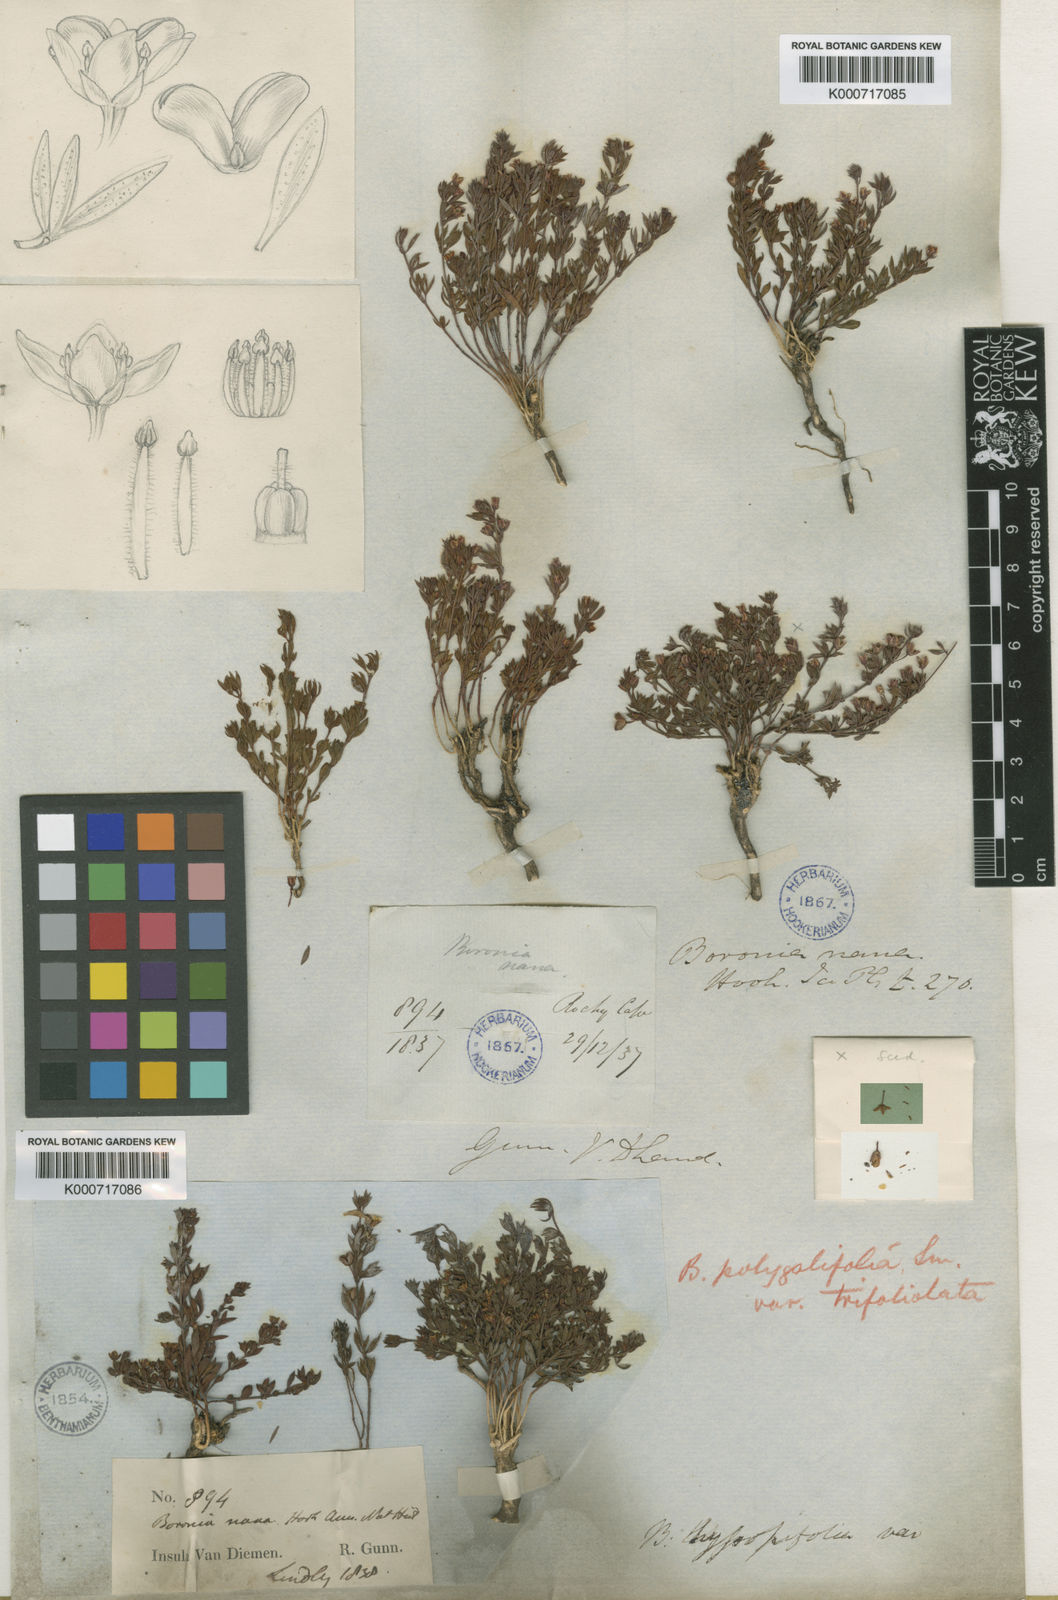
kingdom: Plantae
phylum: Tracheophyta
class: Magnoliopsida
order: Sapindales
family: Rutaceae
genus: Cyanothamnus
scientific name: Cyanothamnus nanus
